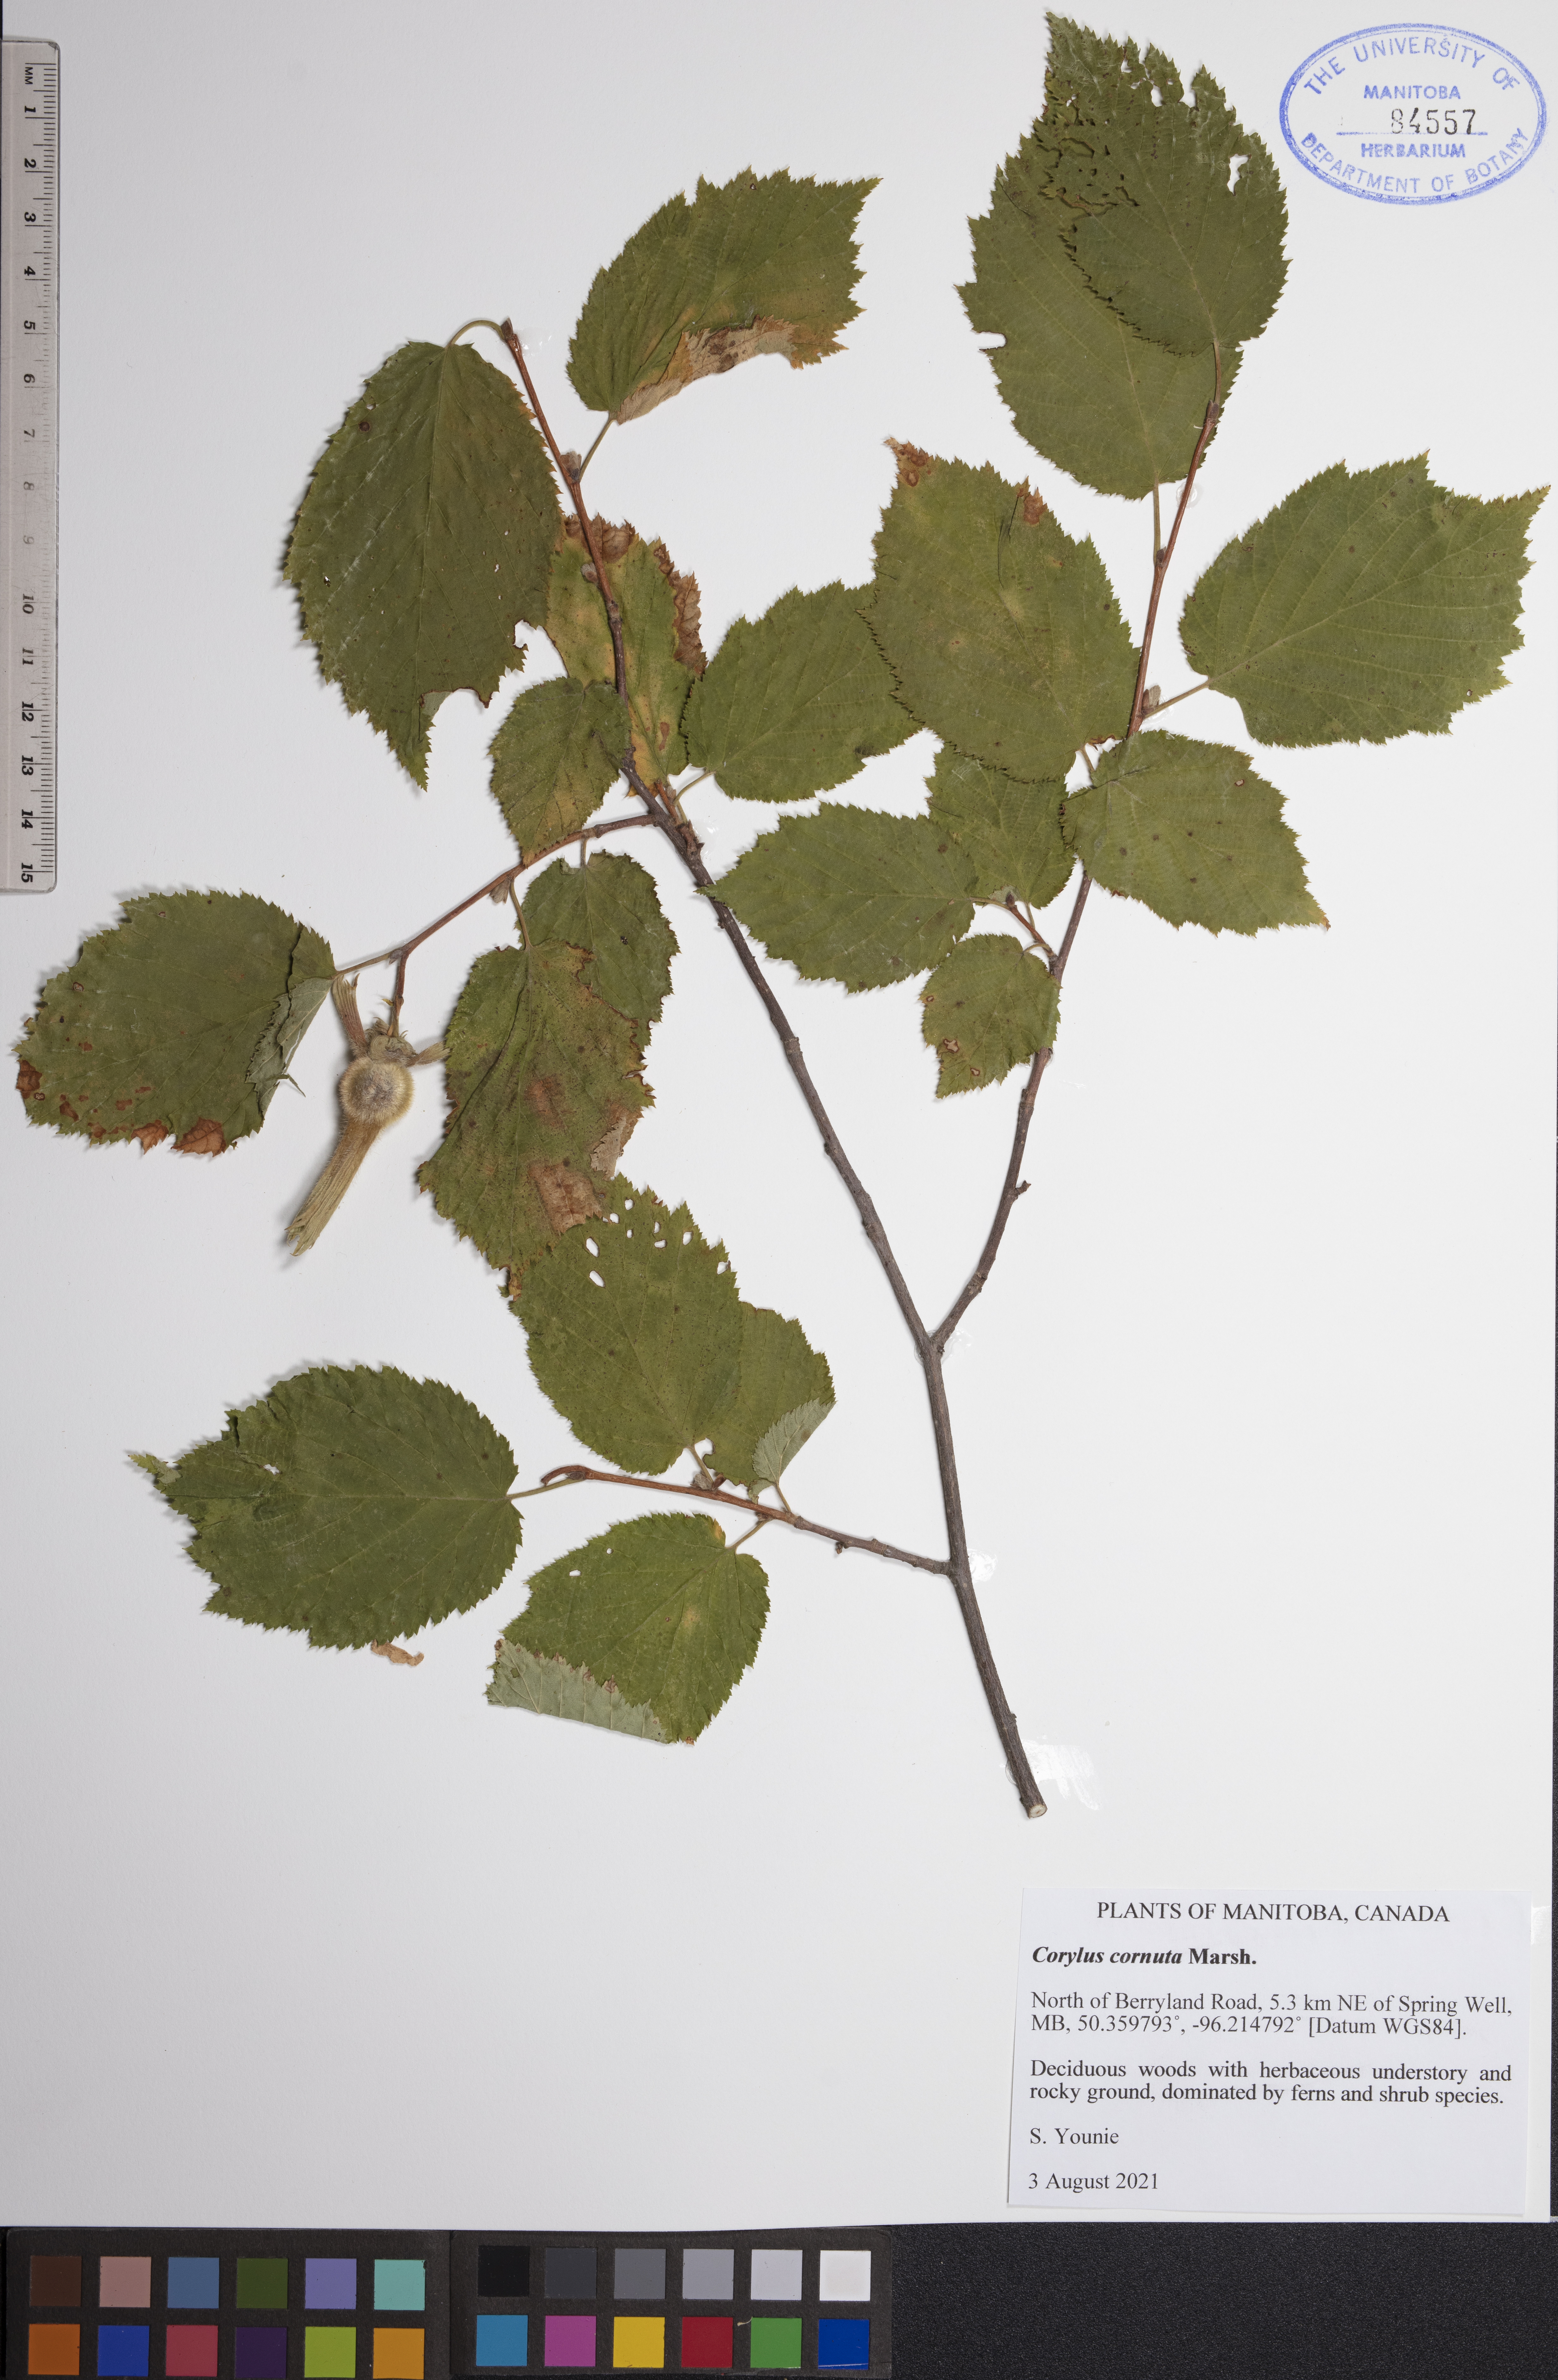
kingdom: Plantae
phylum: Tracheophyta
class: Magnoliopsida
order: Fagales
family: Betulaceae
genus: Corylus
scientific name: Corylus cornuta
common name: Beaked hazel
